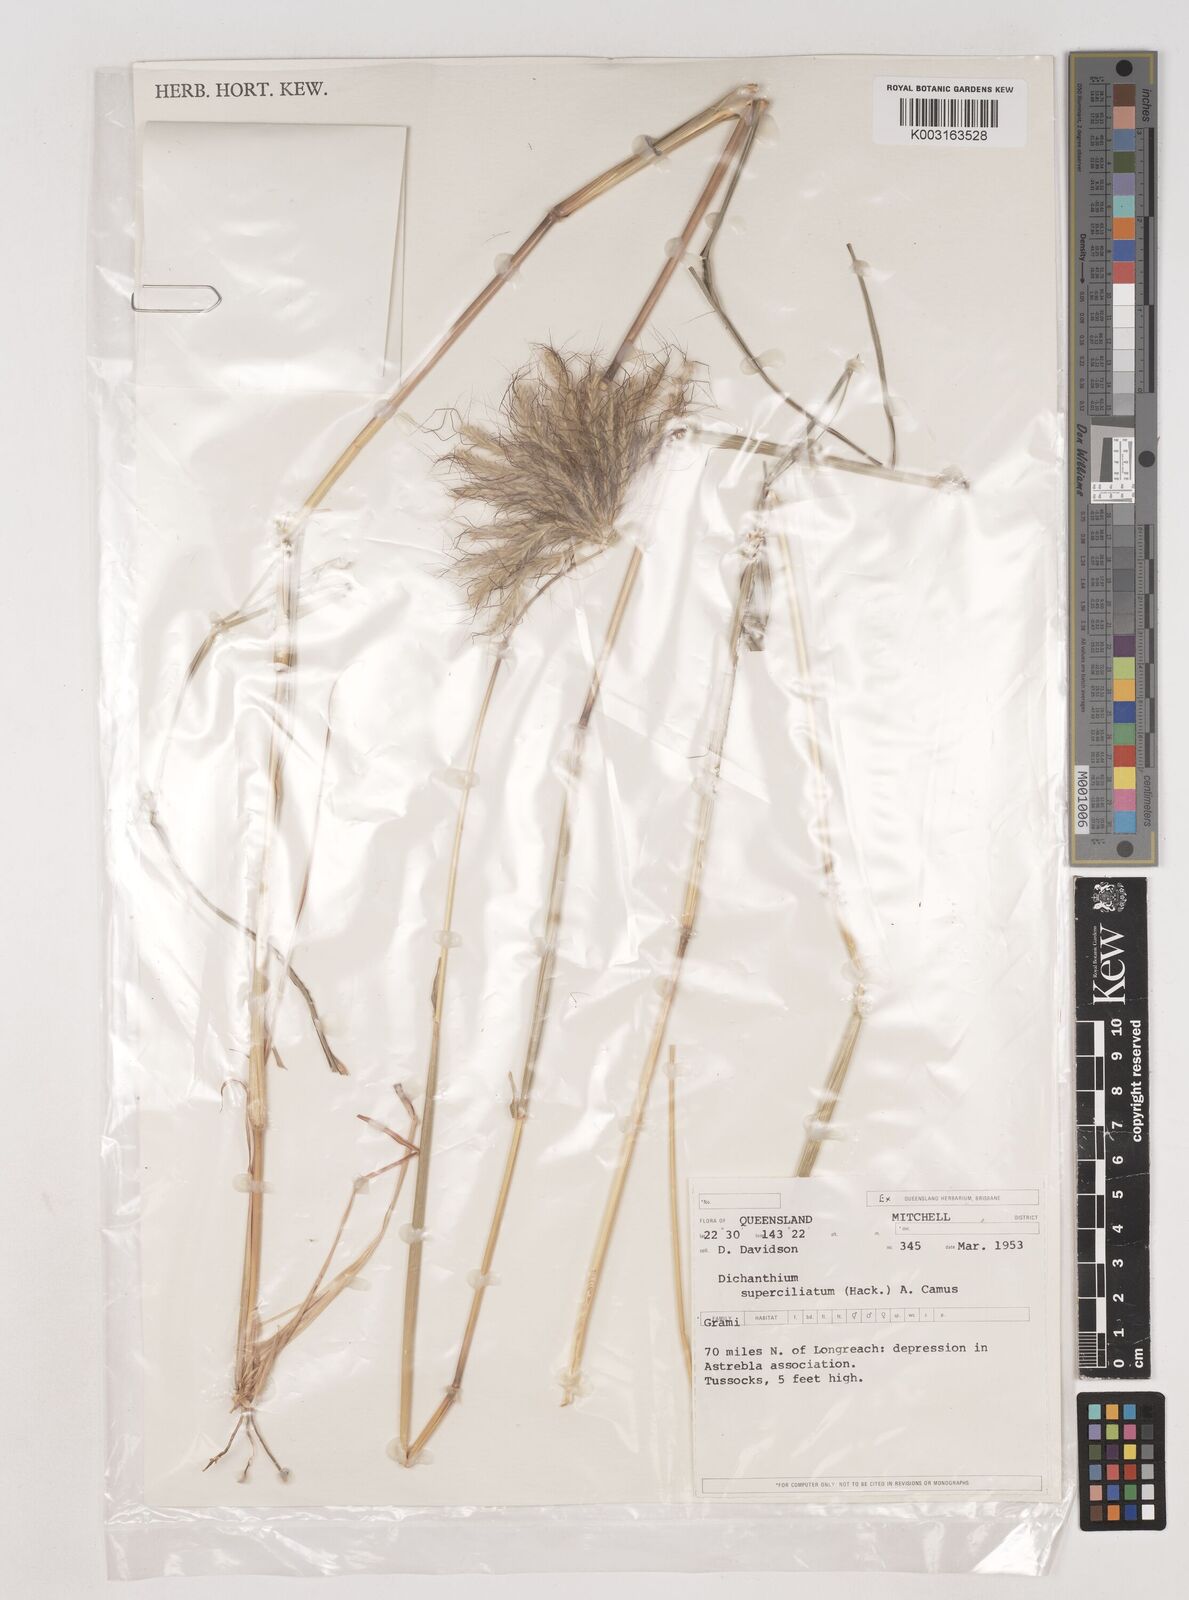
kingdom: Plantae
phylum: Tracheophyta
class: Liliopsida
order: Poales
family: Poaceae
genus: Dichanthium
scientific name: Dichanthium sericeum
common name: Silky bluestem
